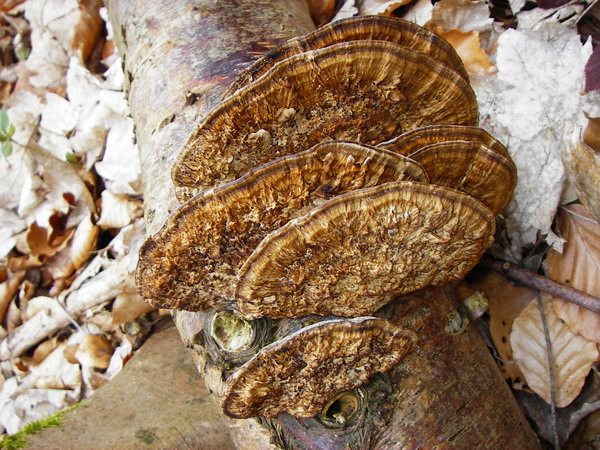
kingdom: Fungi
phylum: Basidiomycota
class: Agaricomycetes
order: Polyporales
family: Polyporaceae
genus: Daedaleopsis
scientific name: Daedaleopsis confragosa
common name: rødmende læderporesvamp
